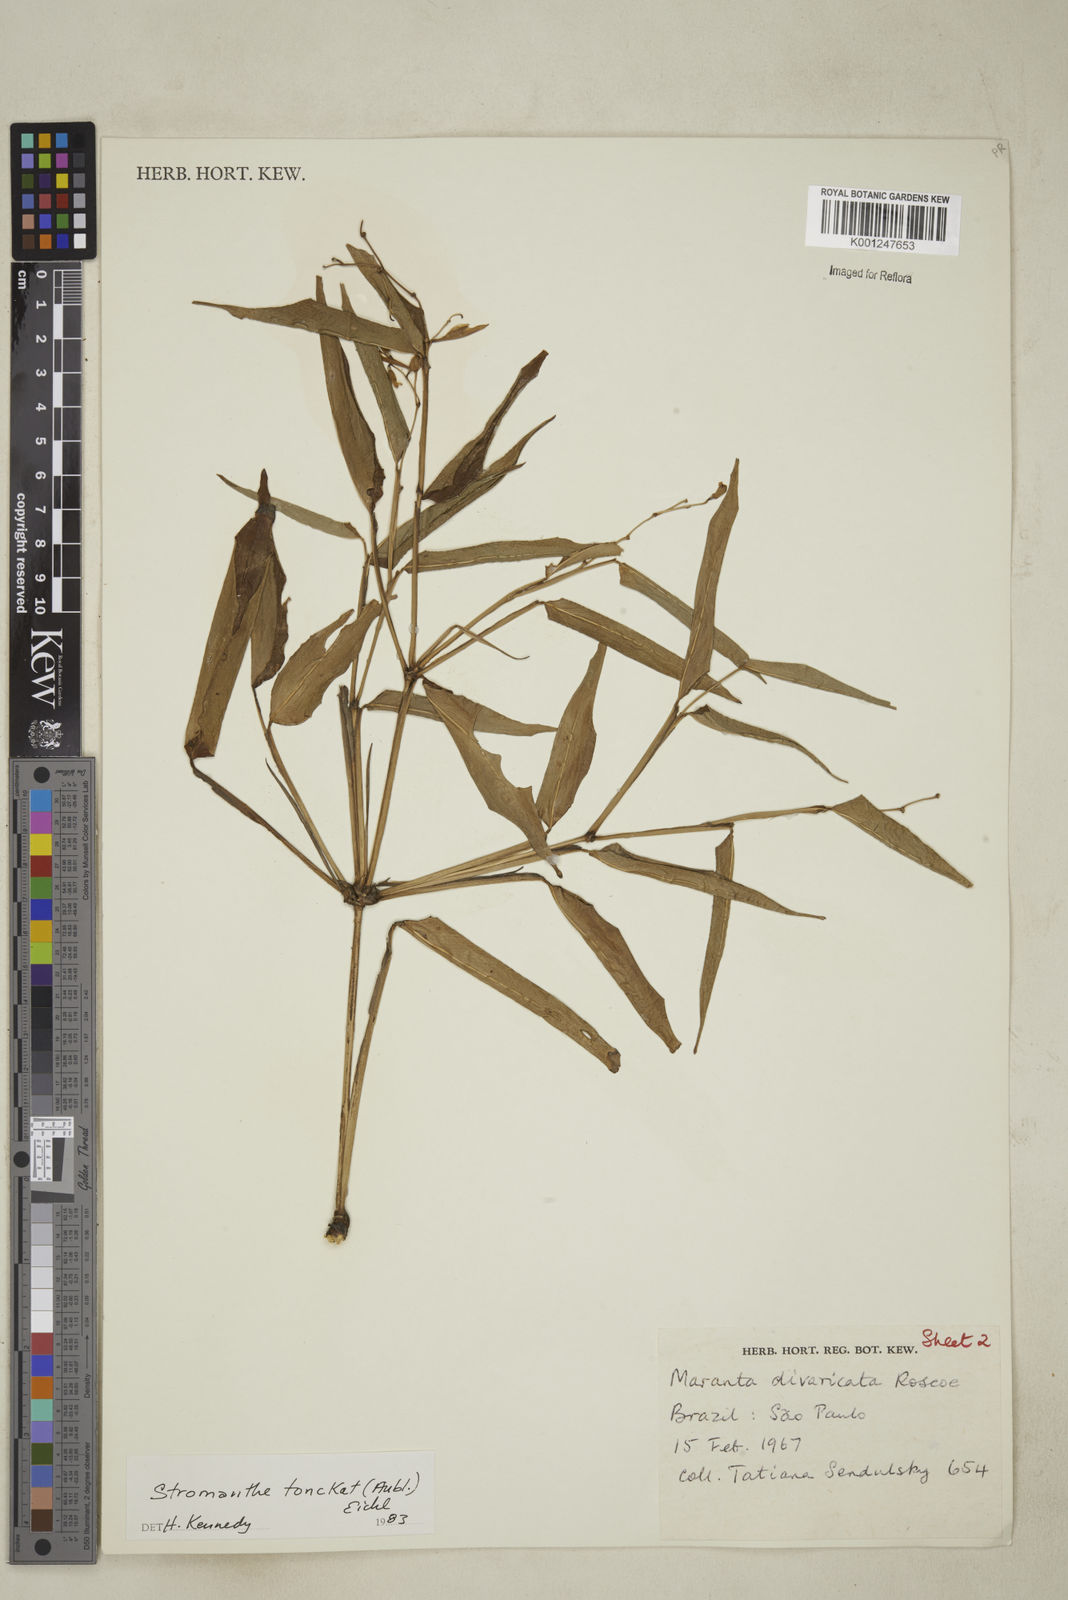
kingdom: Plantae
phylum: Tracheophyta
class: Liliopsida
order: Zingiberales
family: Marantaceae
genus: Stromanthe
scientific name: Stromanthe tonckat
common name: Stromanthe
